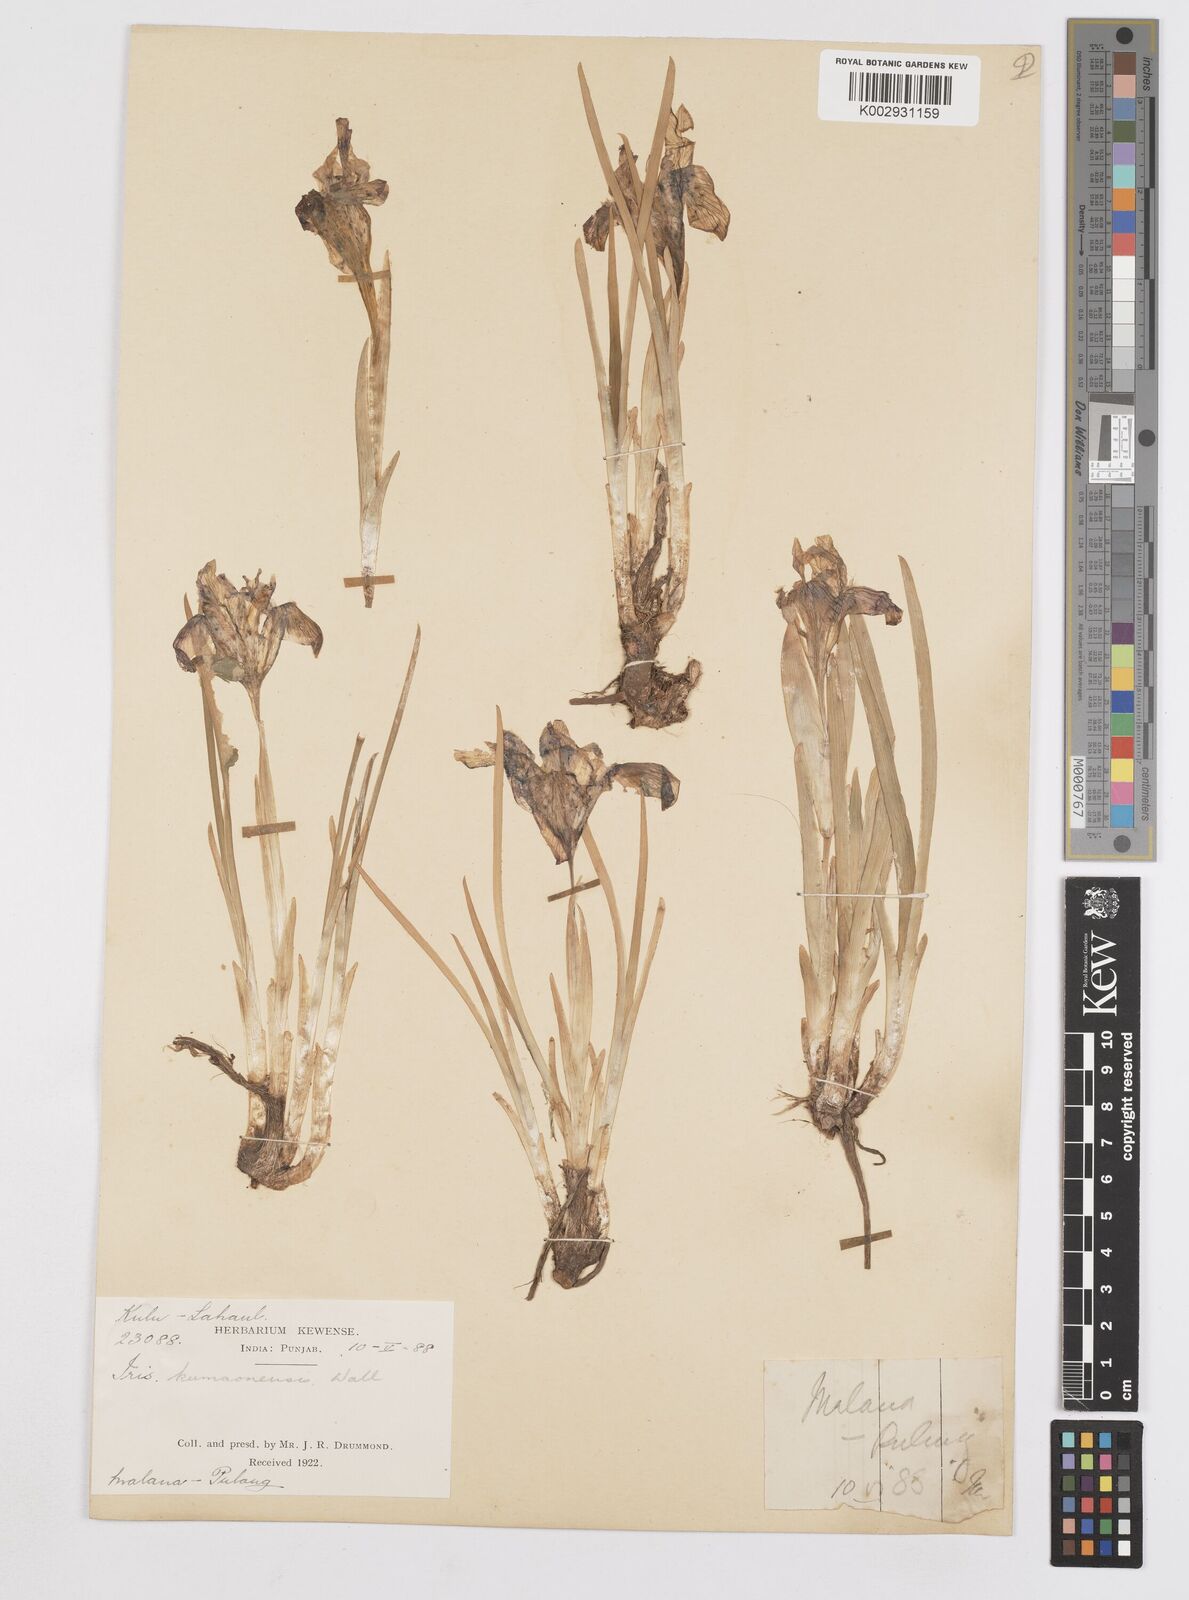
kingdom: Plantae
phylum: Tracheophyta
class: Liliopsida
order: Asparagales
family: Iridaceae
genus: Iris
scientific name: Iris kemaonensis
